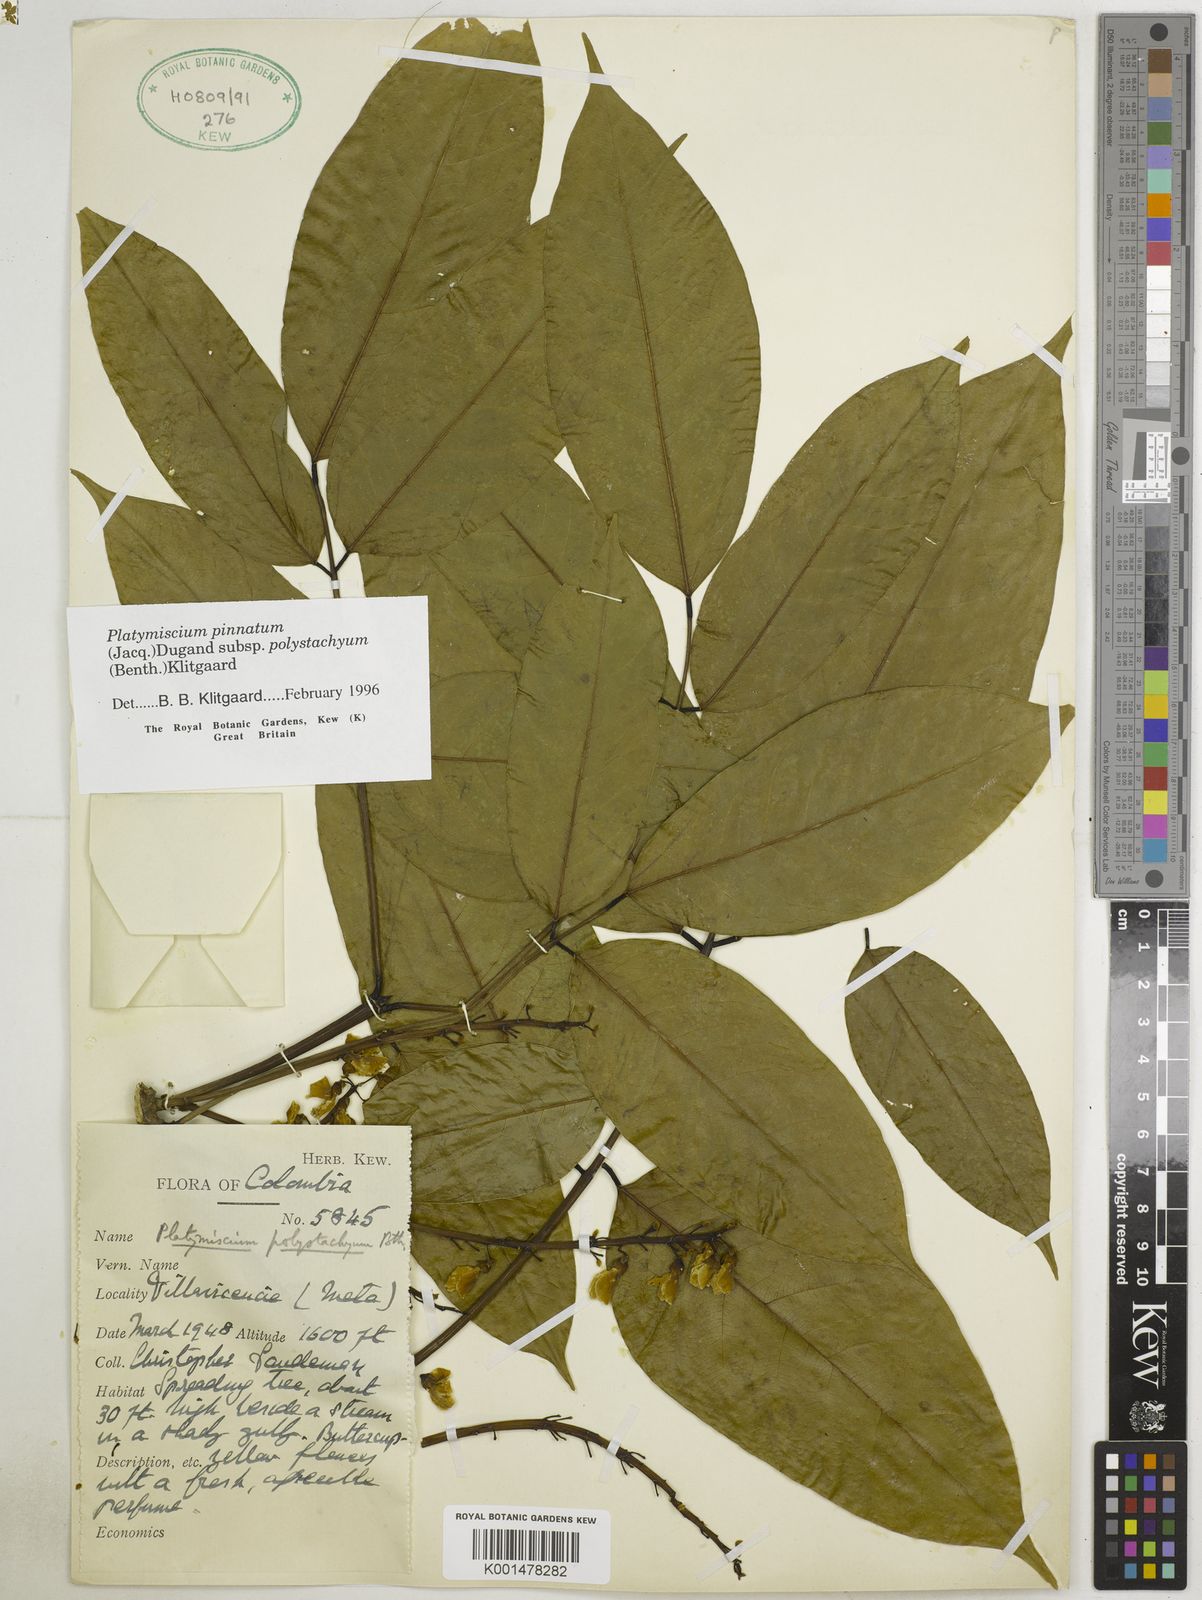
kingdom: Plantae
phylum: Tracheophyta
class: Magnoliopsida
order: Fabales
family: Fabaceae
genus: Platymiscium
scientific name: Platymiscium pinnatum
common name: Panama redwood
